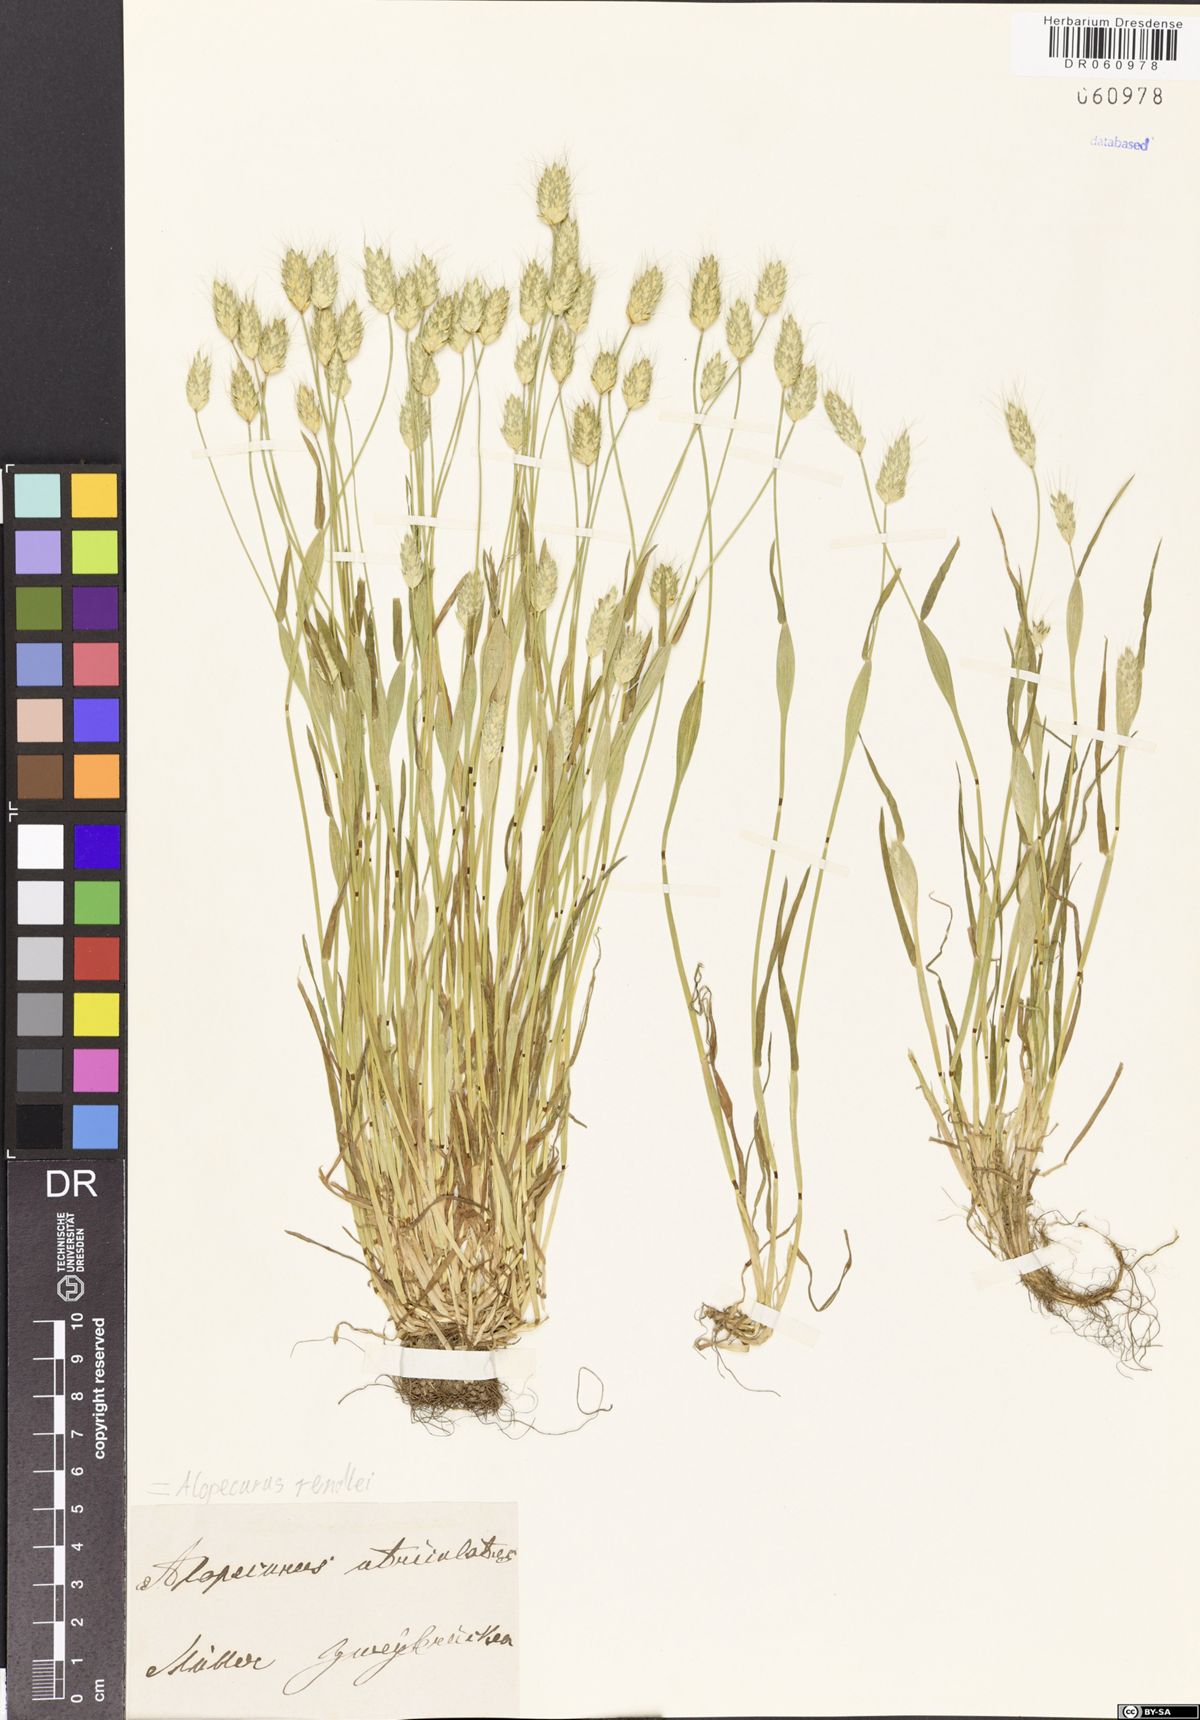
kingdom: Plantae
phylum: Tracheophyta
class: Liliopsida
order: Poales
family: Poaceae
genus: Alopecurus
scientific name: Alopecurus rendlei
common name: Rendle's meadow foxtail
